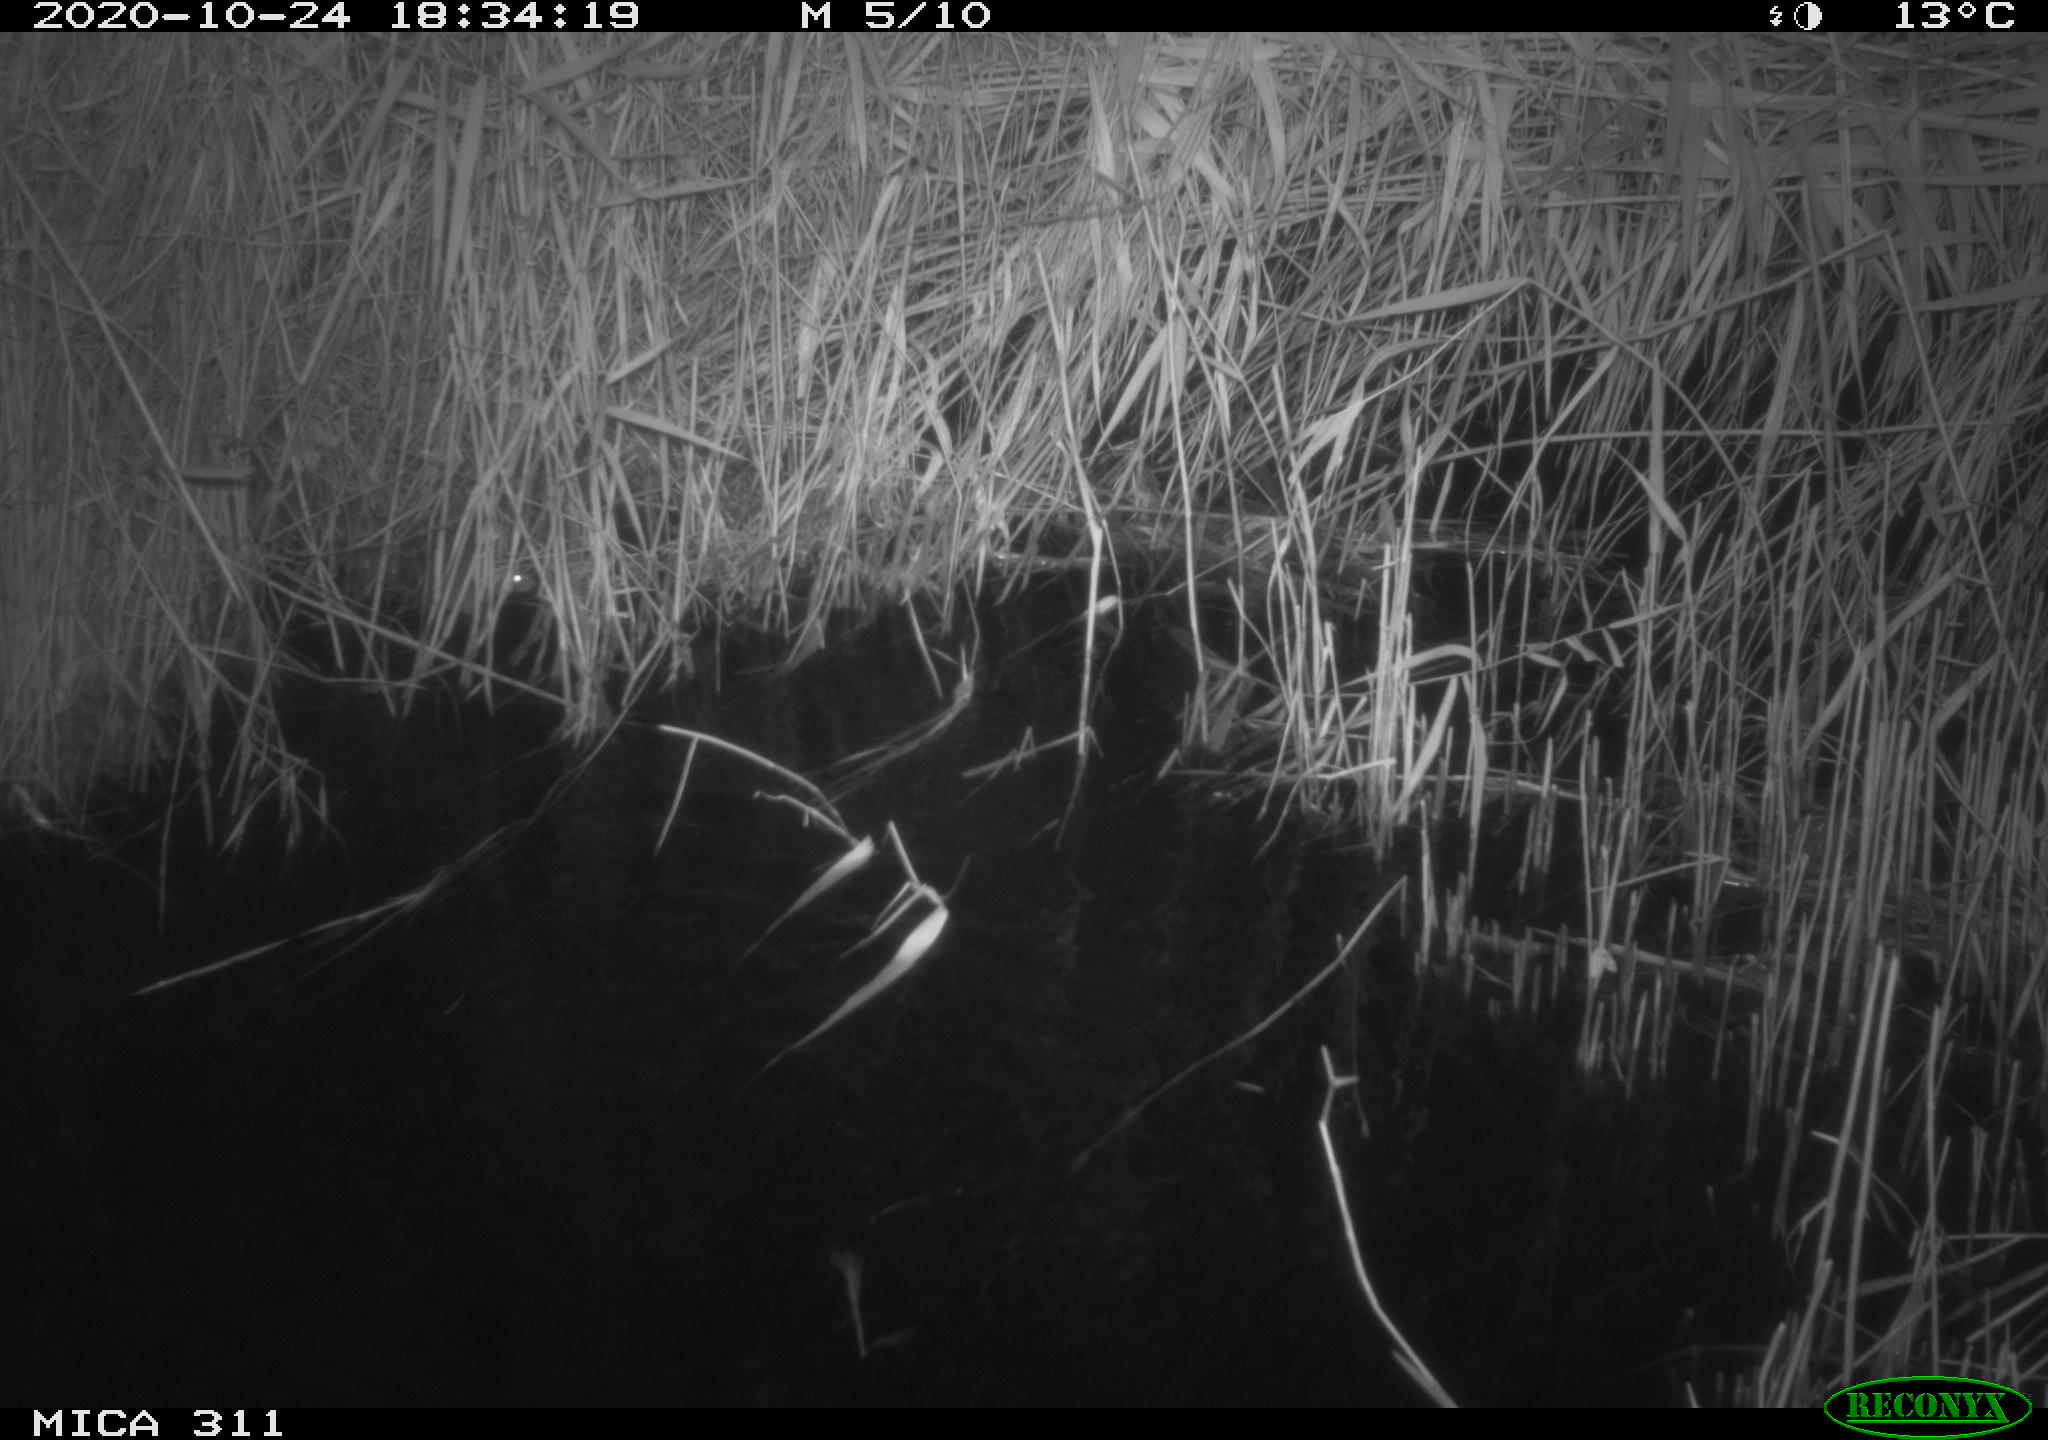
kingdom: Animalia
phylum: Chordata
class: Mammalia
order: Rodentia
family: Muridae
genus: Rattus
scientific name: Rattus norvegicus
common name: Brown rat
